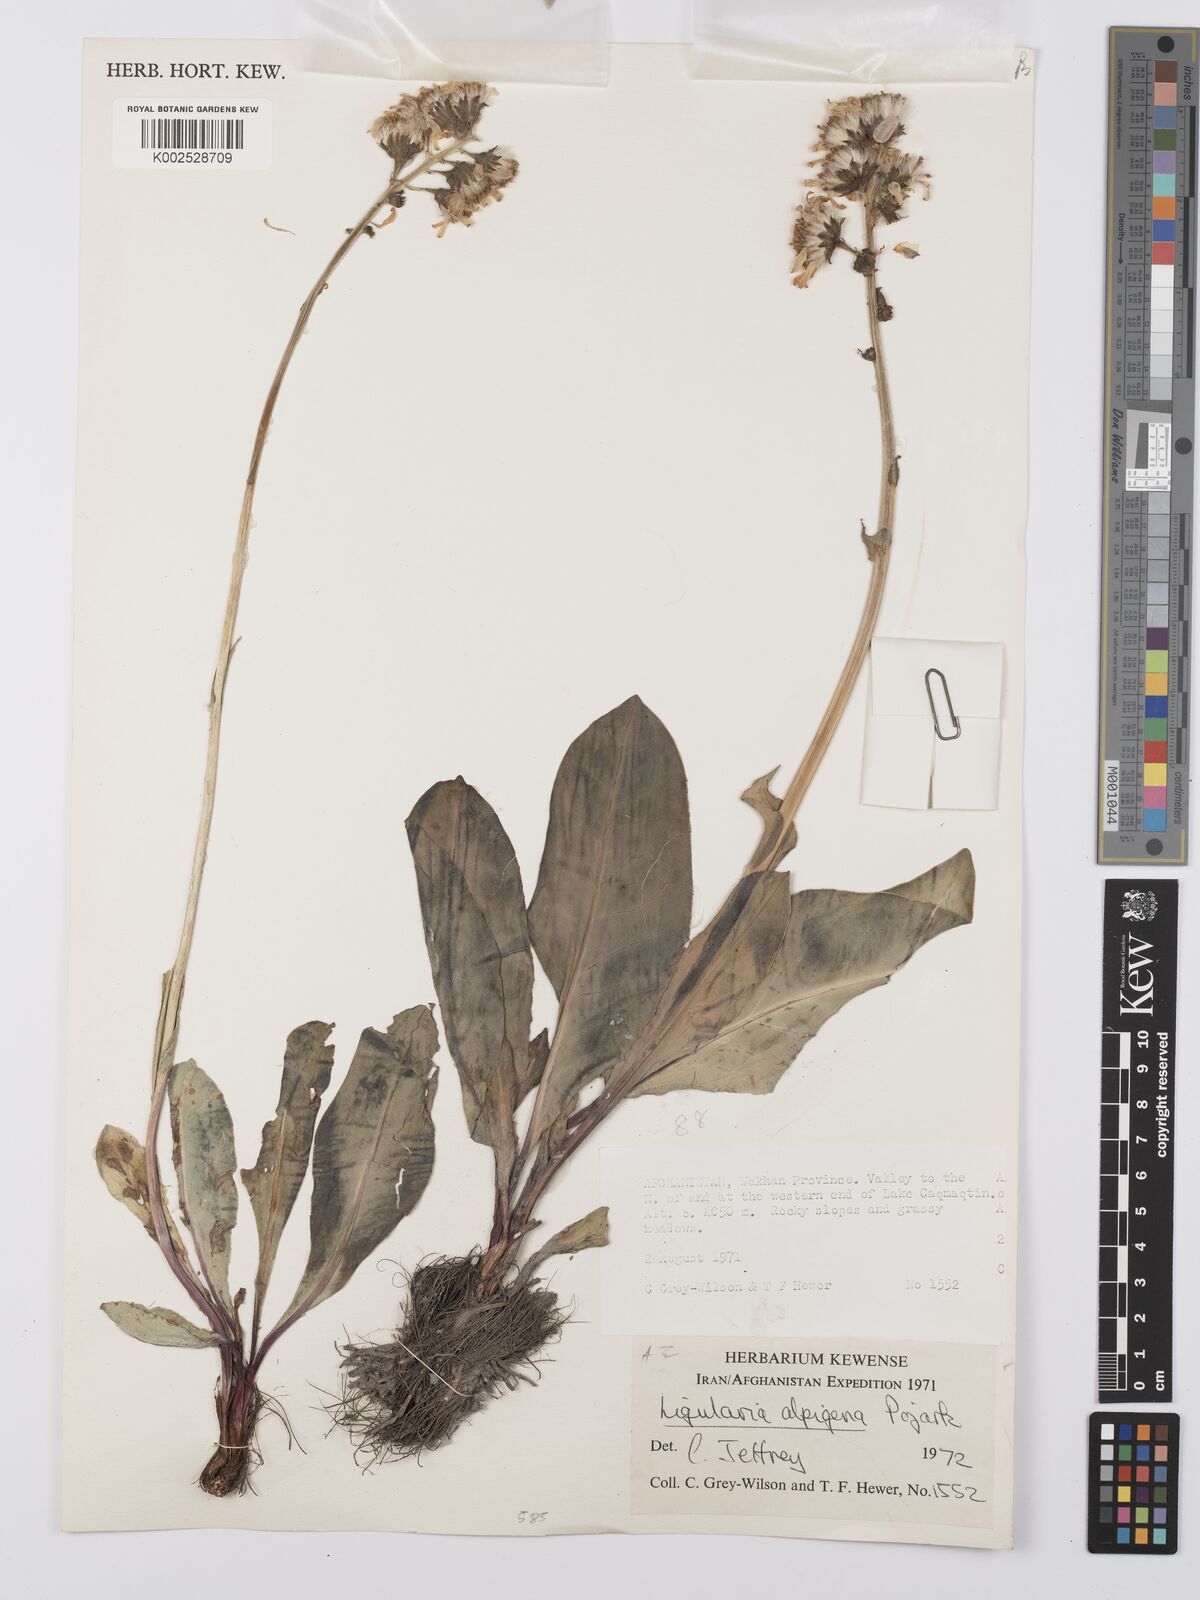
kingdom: Plantae
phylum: Tracheophyta
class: Magnoliopsida
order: Asterales
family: Asteraceae
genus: Ligularia
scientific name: Ligularia alpigena
